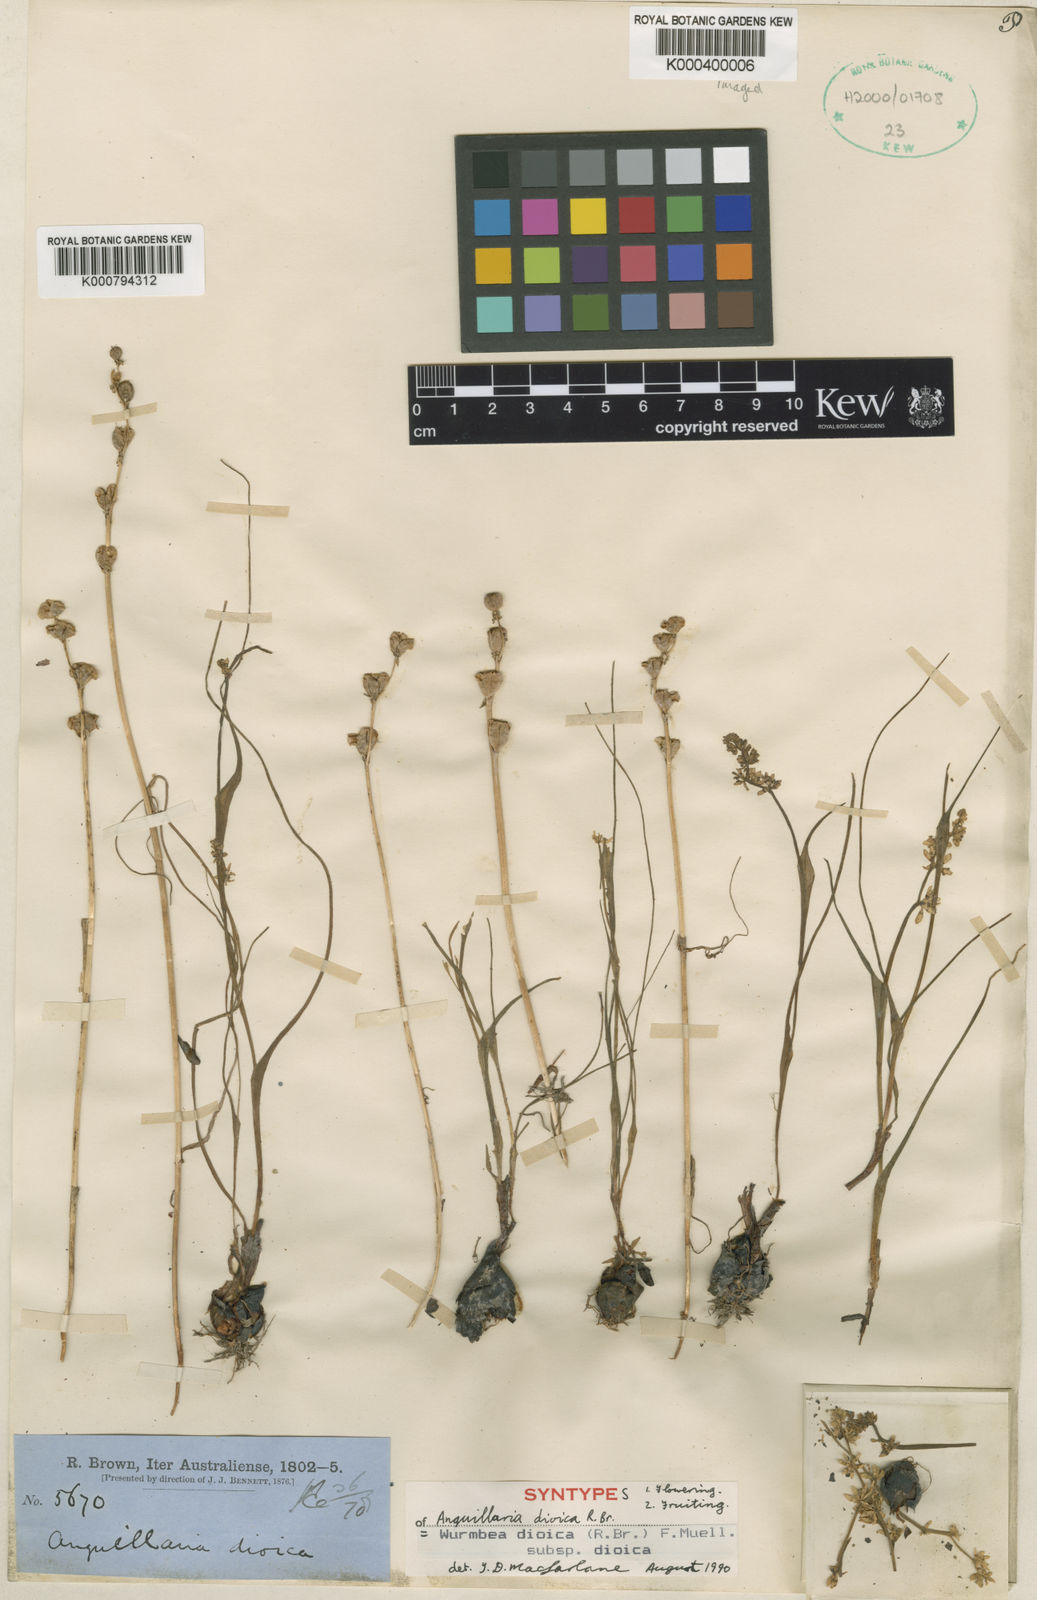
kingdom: Plantae
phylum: Tracheophyta
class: Liliopsida
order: Liliales
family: Colchicaceae
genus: Wurmbea
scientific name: Wurmbea dioica
